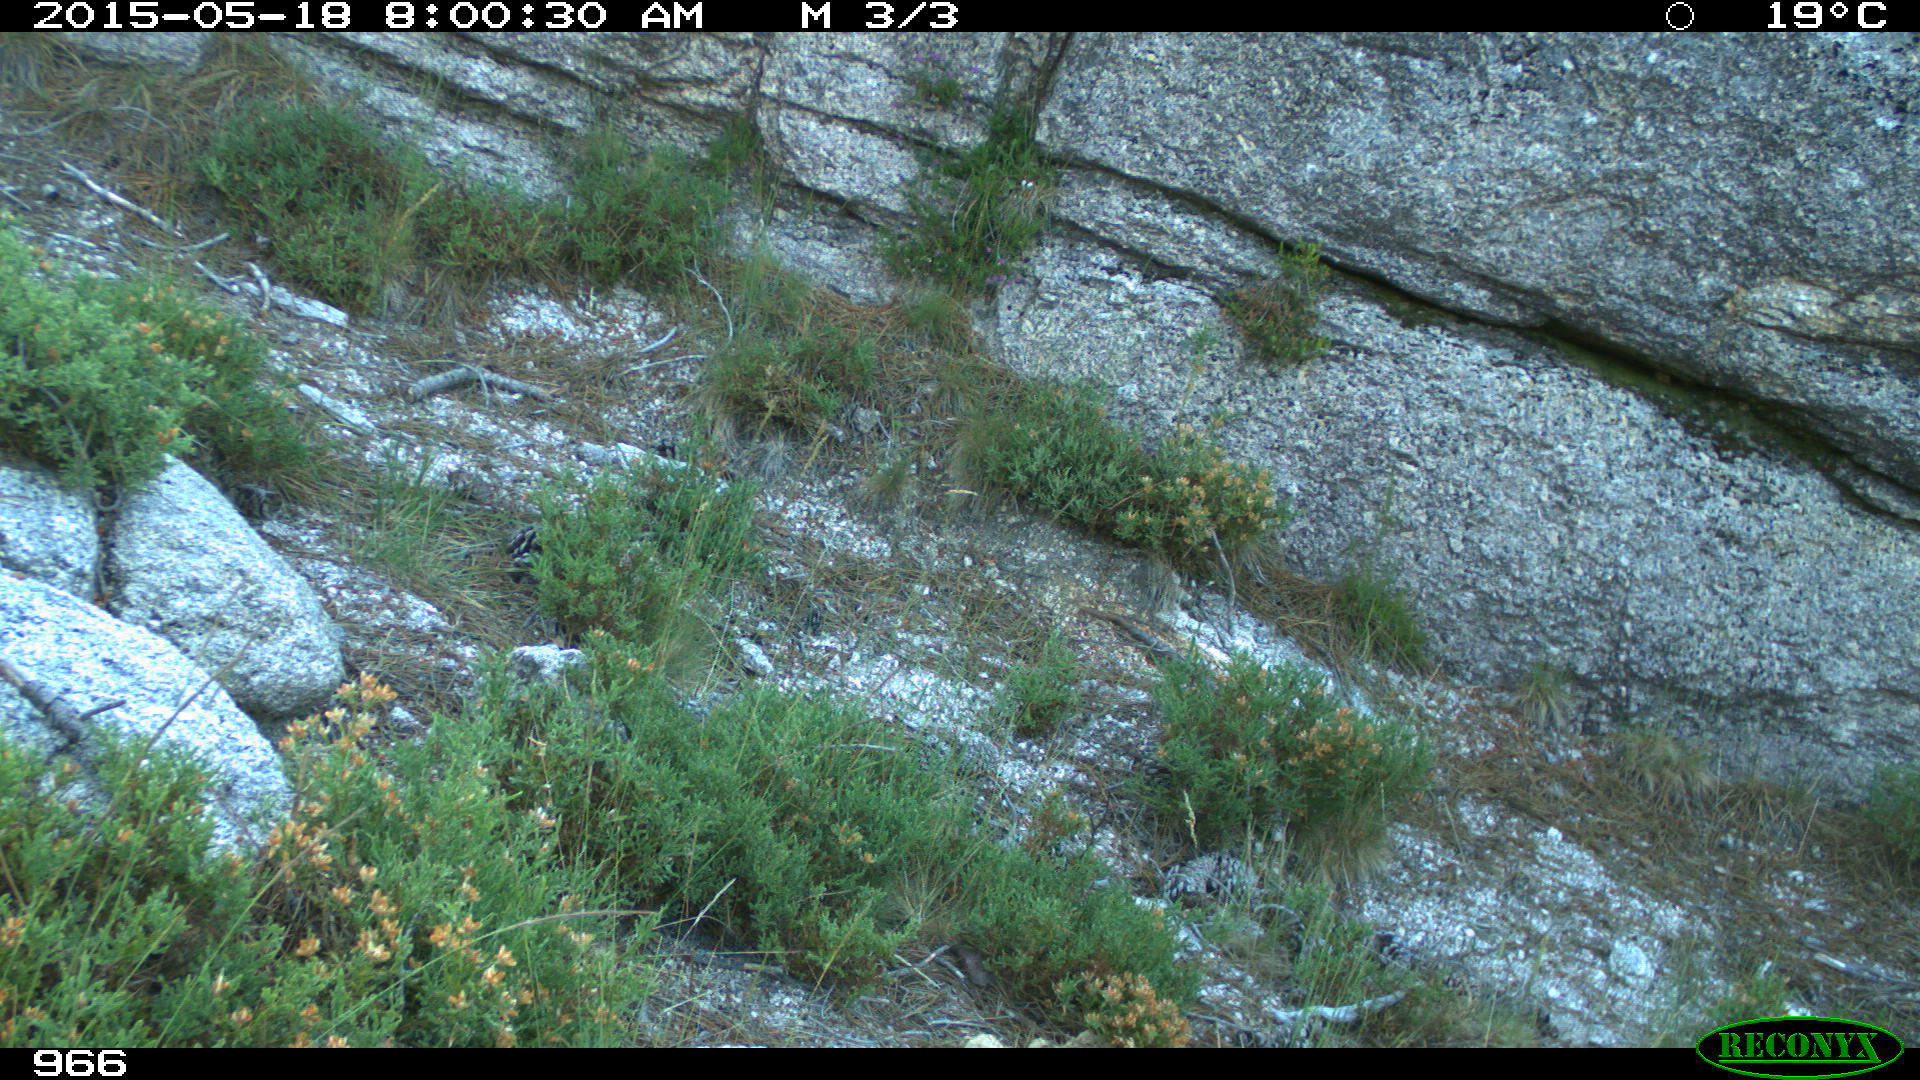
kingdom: Animalia
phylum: Chordata
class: Mammalia
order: Artiodactyla
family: Cervidae
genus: Capreolus
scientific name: Capreolus capreolus
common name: Western roe deer
